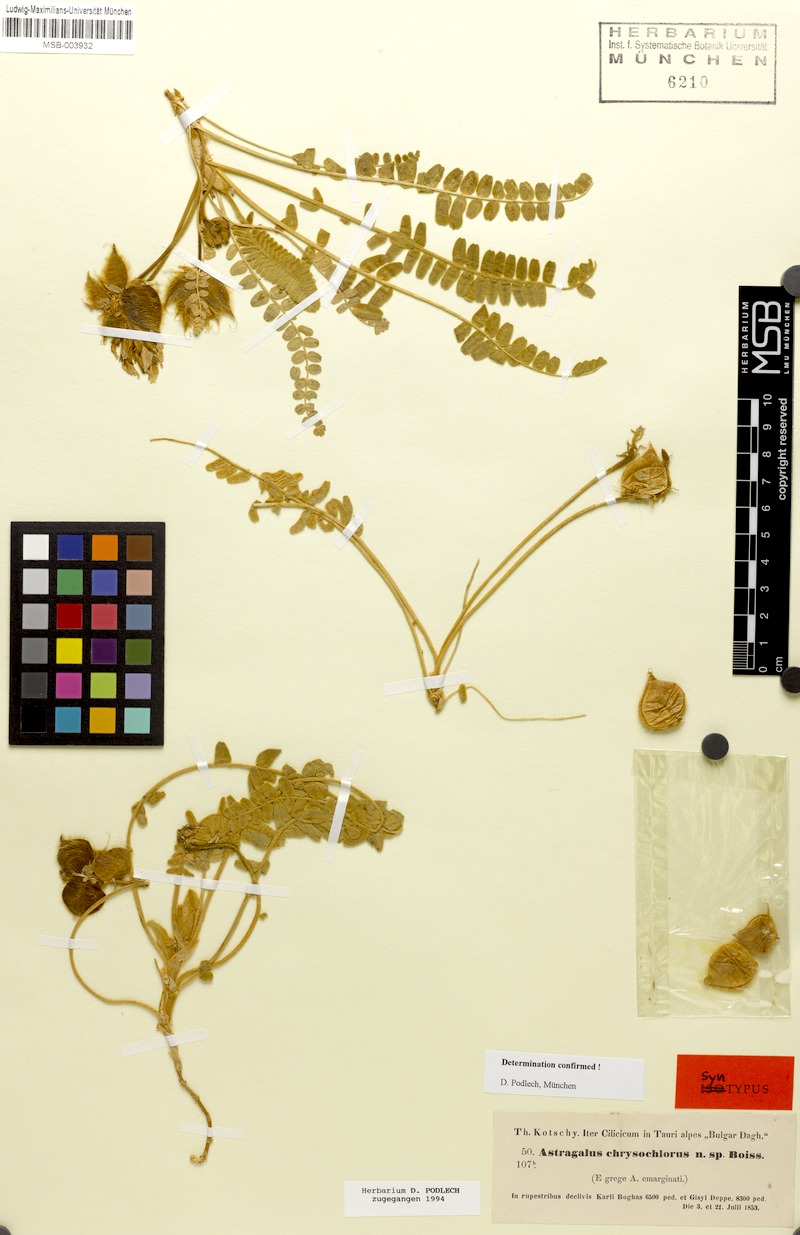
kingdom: Plantae
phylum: Tracheophyta
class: Magnoliopsida
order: Fabales
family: Fabaceae
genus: Astragalus
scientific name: Astragalus chrysochlorus
